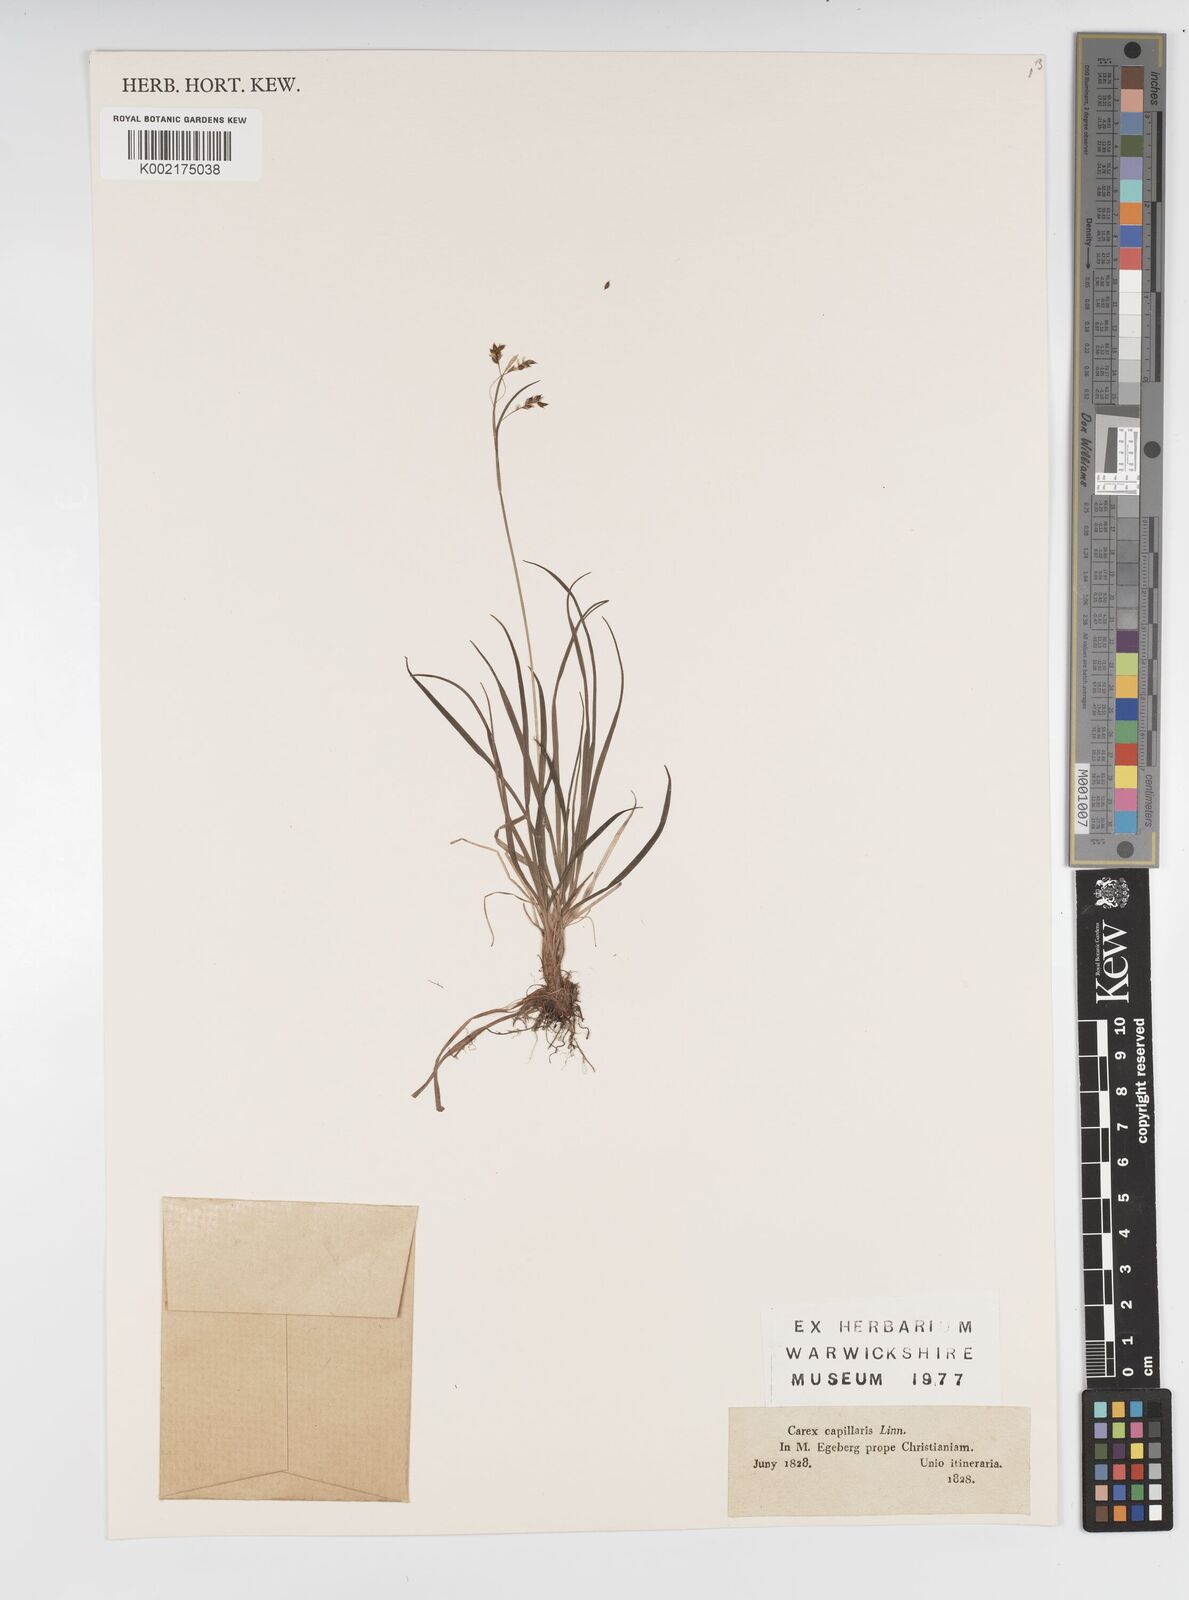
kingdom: Plantae
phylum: Tracheophyta
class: Liliopsida
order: Poales
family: Cyperaceae
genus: Carex
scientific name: Carex capillaris
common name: Hair sedge
